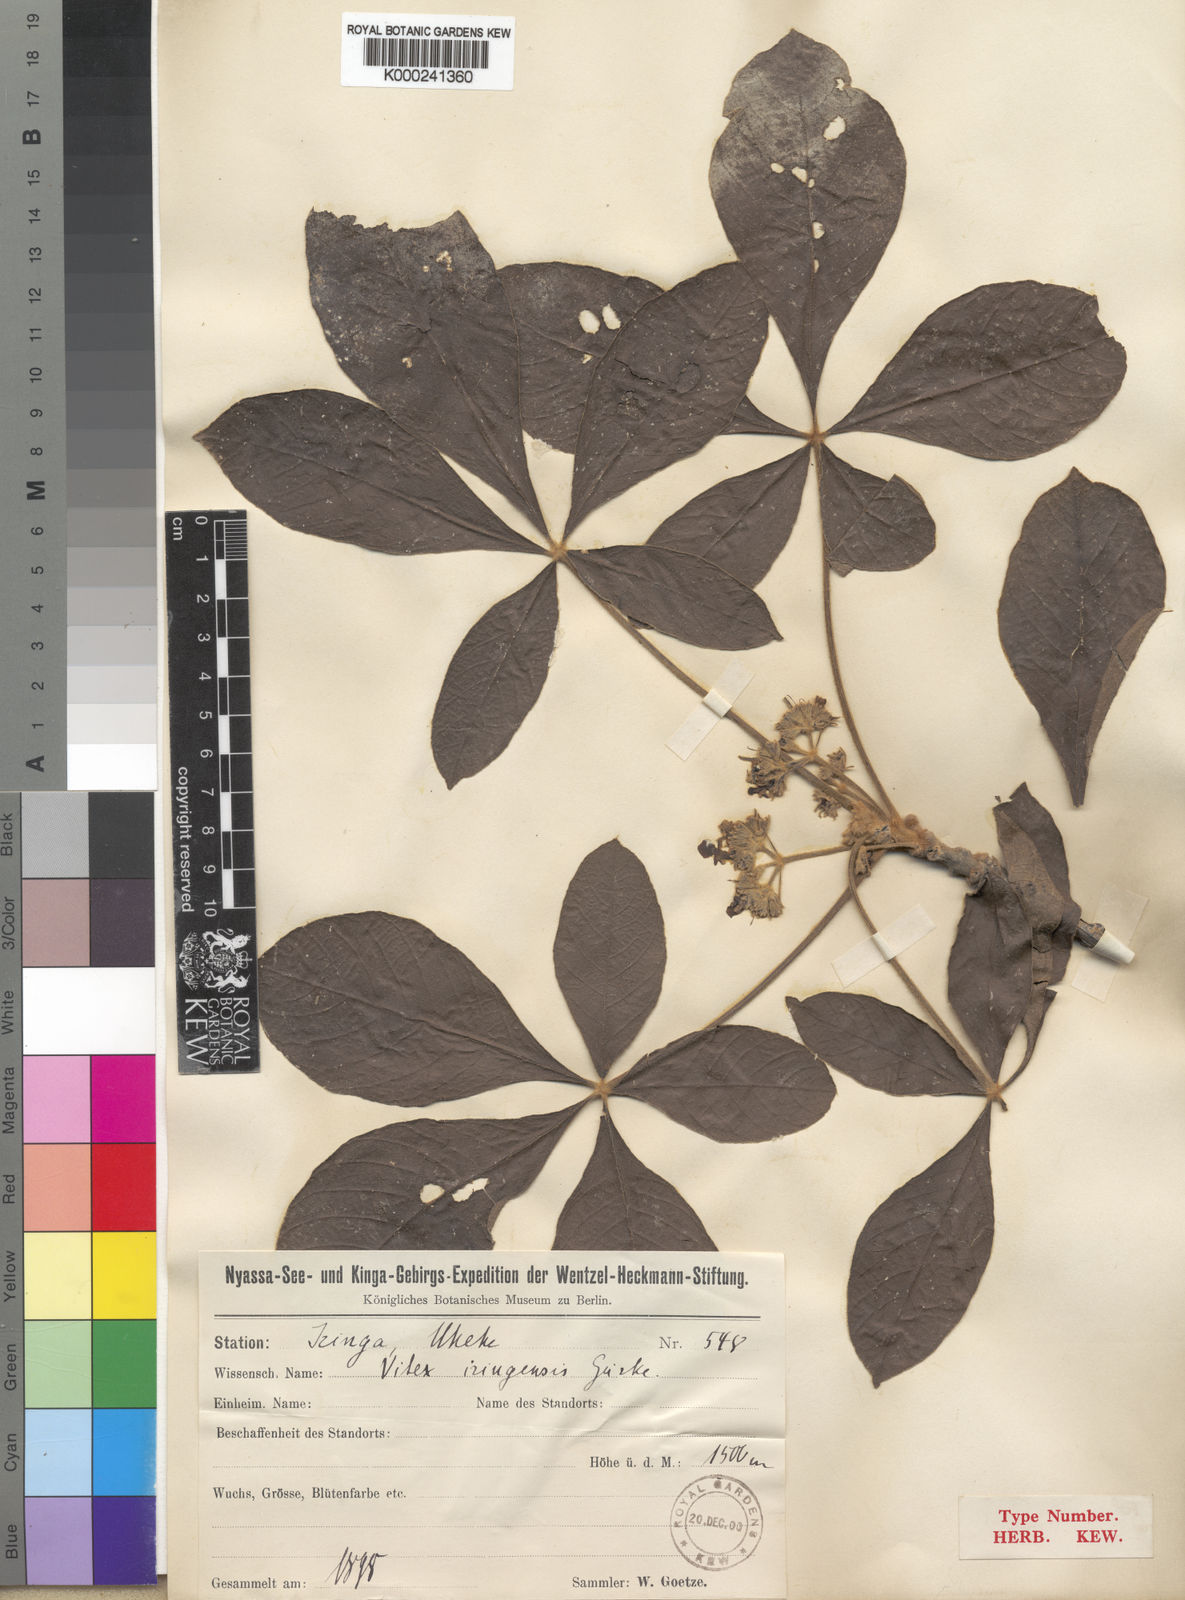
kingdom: Plantae
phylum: Tracheophyta
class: Magnoliopsida
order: Lamiales
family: Lamiaceae
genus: Vitex
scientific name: Vitex payos
